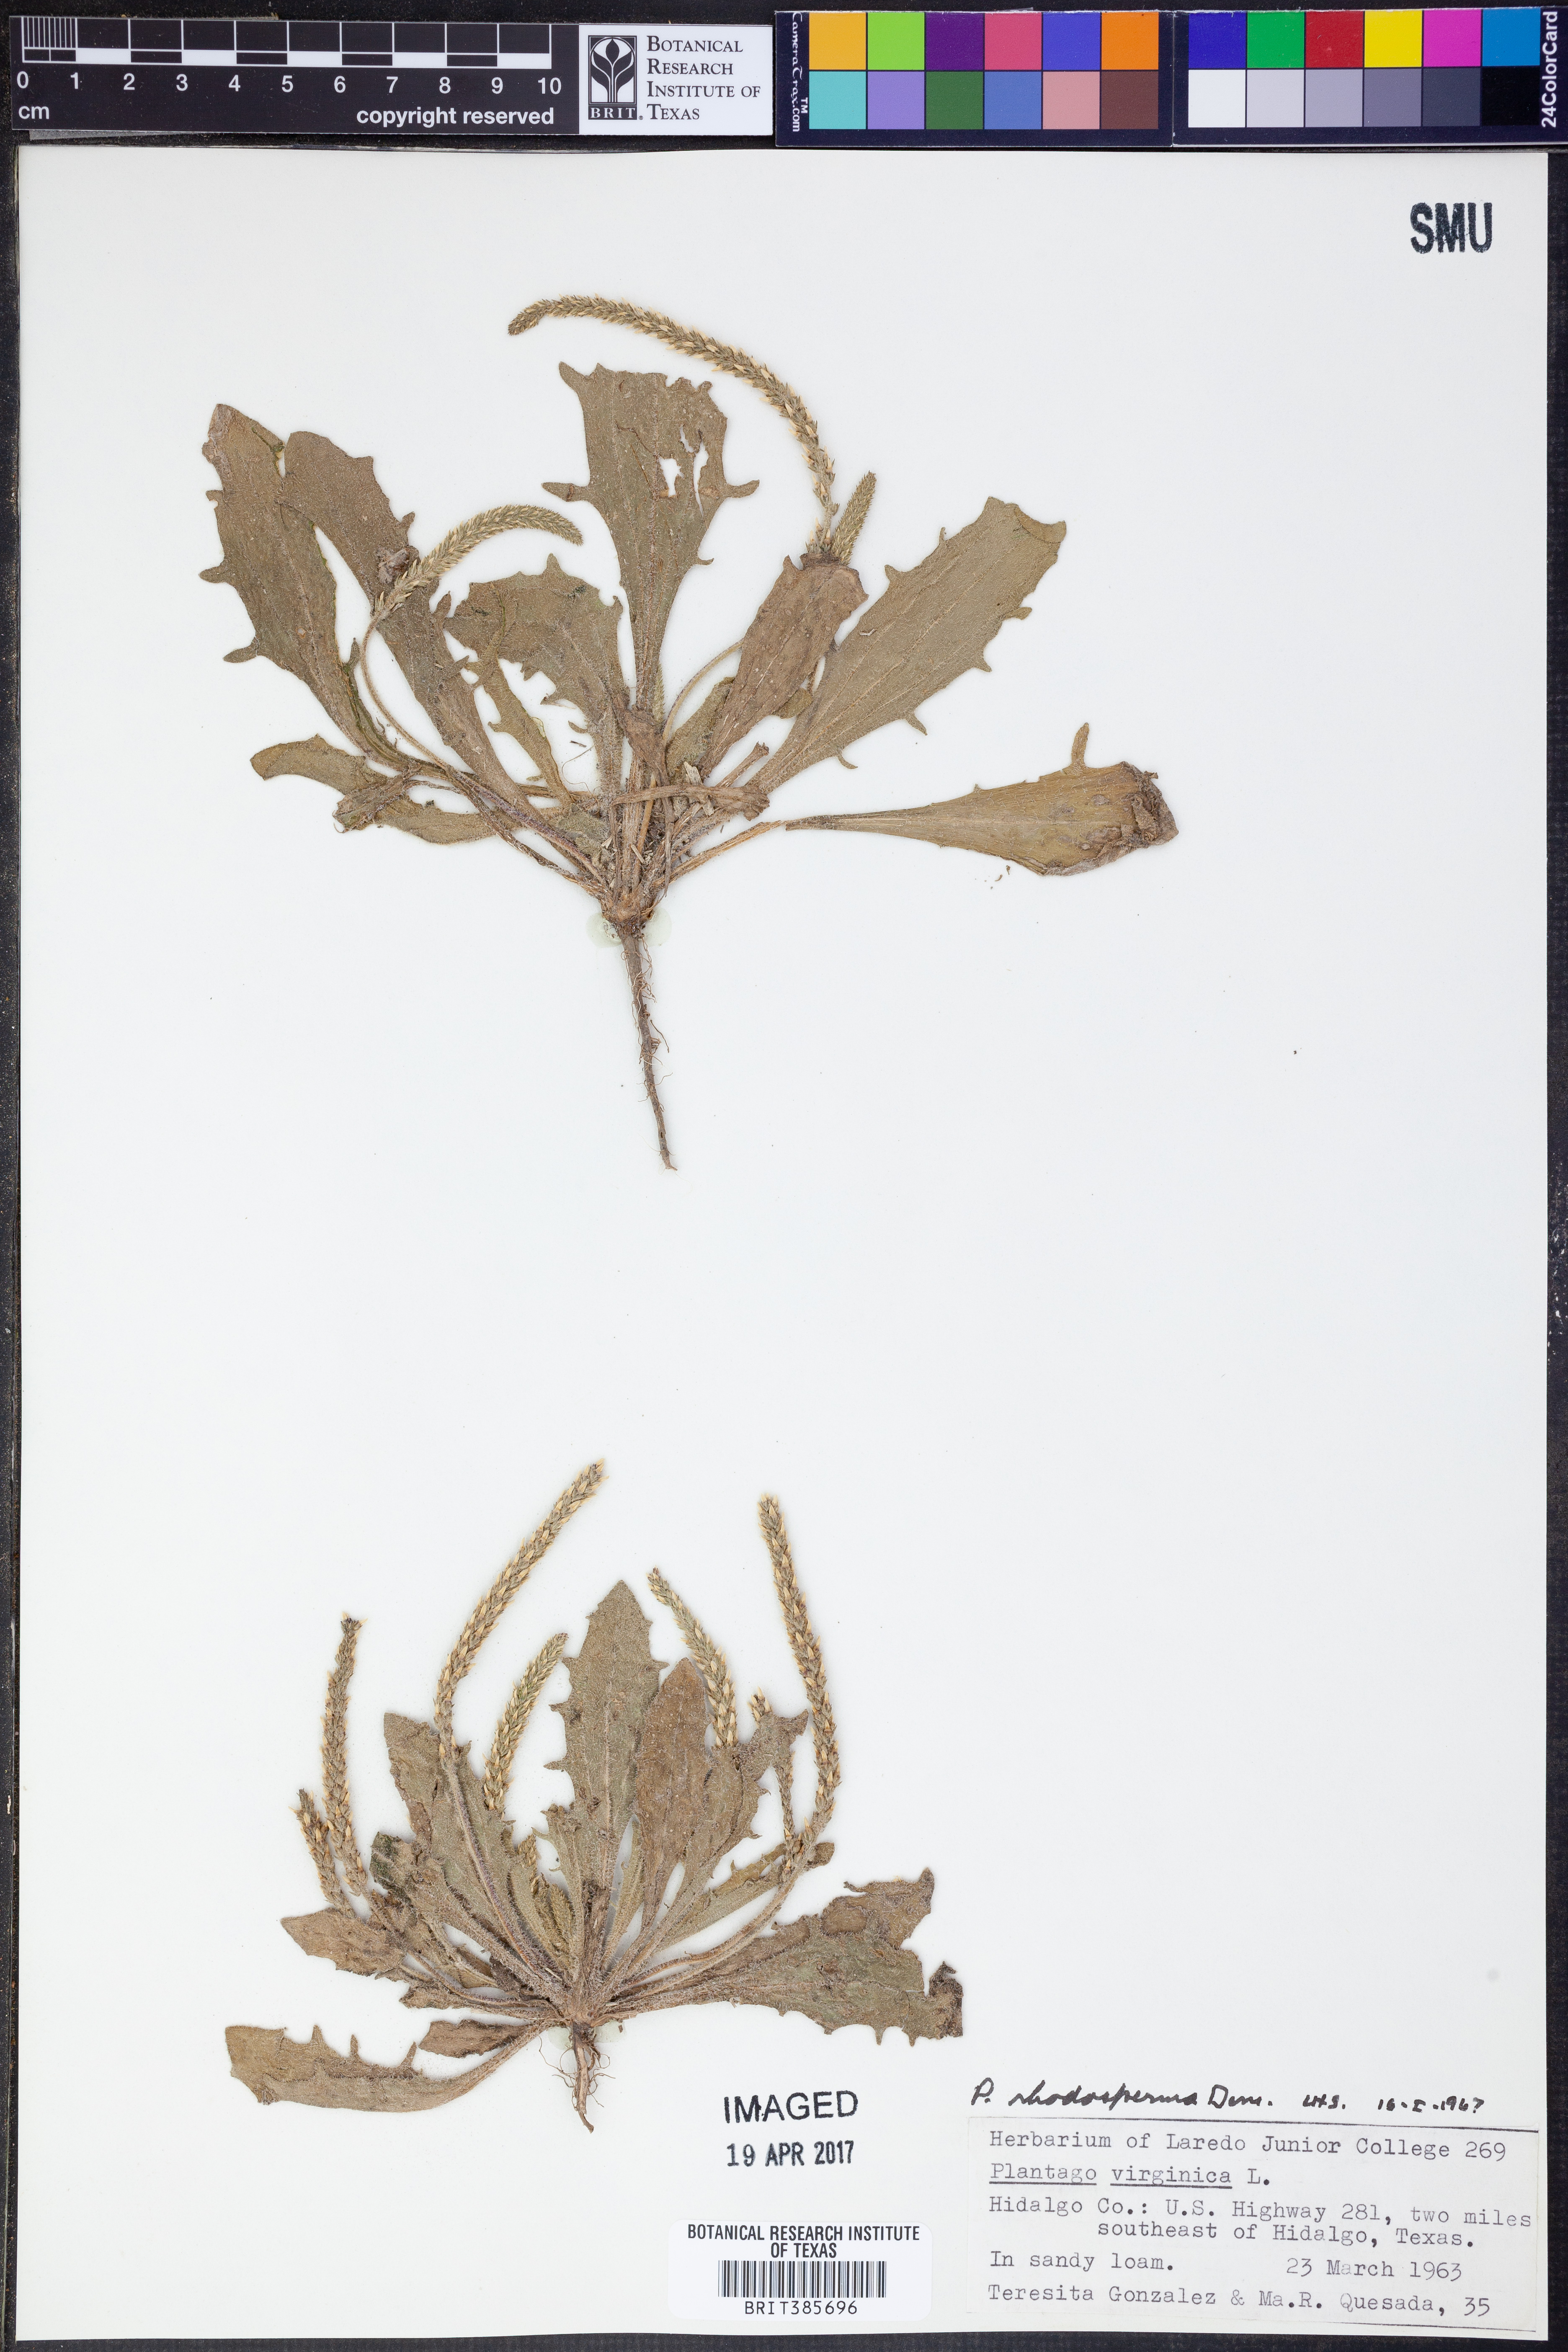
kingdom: Plantae
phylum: Tracheophyta
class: Magnoliopsida
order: Lamiales
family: Plantaginaceae
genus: Plantago
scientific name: Plantago rhodosperma
